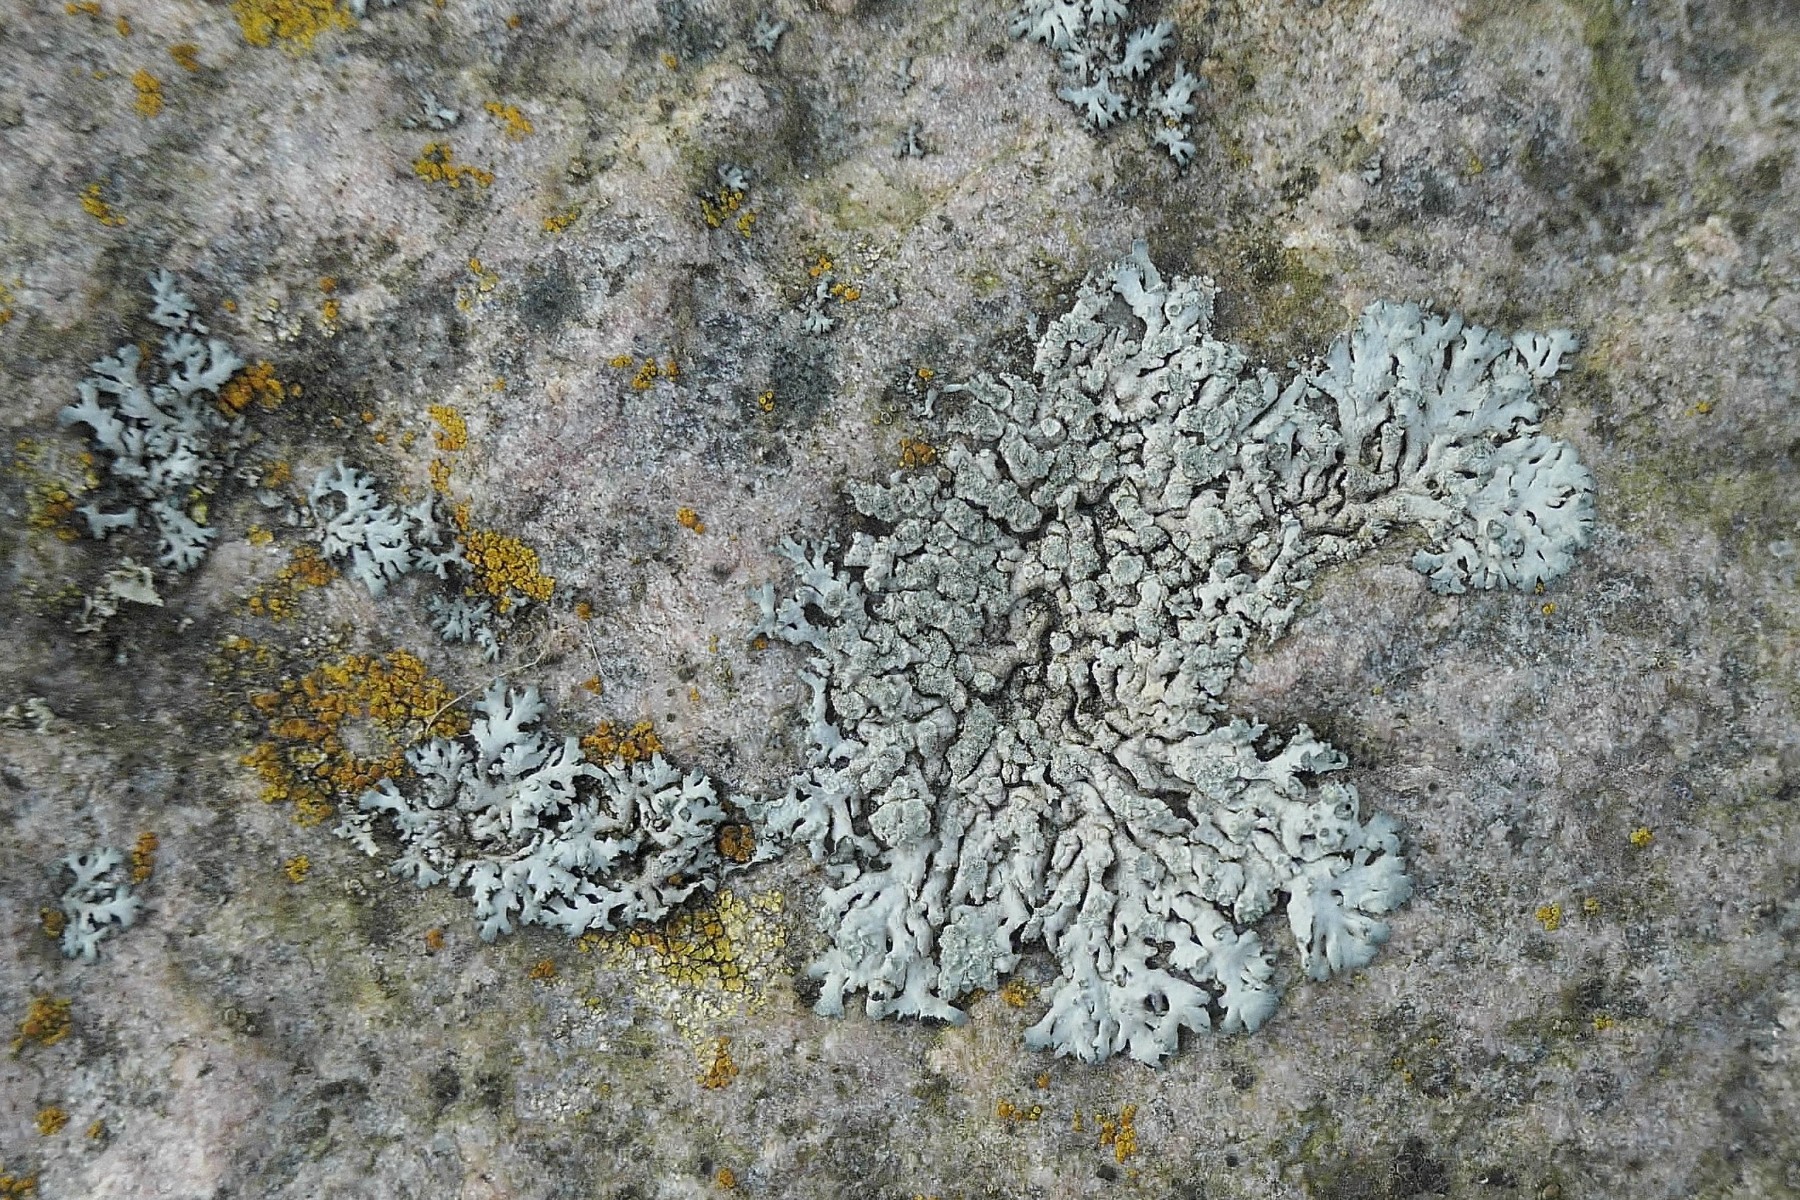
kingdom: Fungi
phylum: Ascomycota
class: Lecanoromycetes
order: Caliciales
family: Physciaceae
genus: Physcia
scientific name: Physcia caesia
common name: blågrå rosetlav
